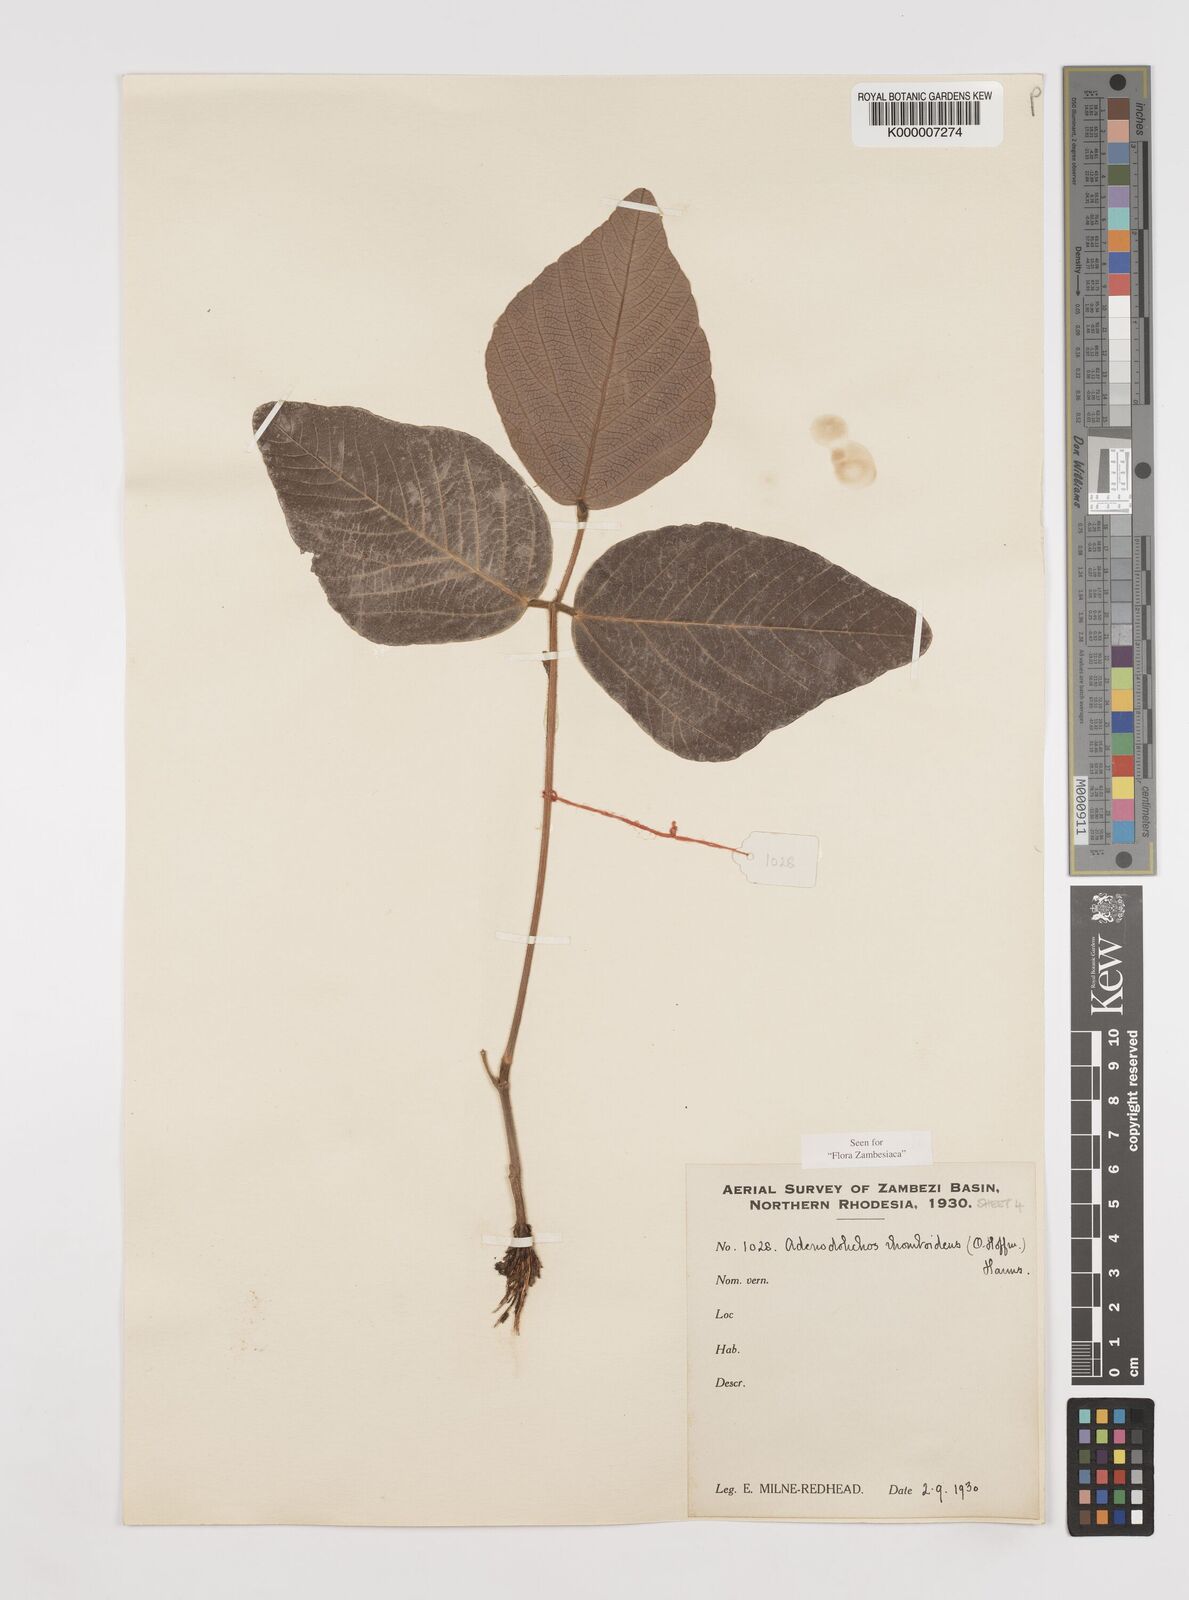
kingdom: Plantae
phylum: Tracheophyta
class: Magnoliopsida
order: Fabales
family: Fabaceae
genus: Adenodolichos
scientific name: Adenodolichos rhomboideus
